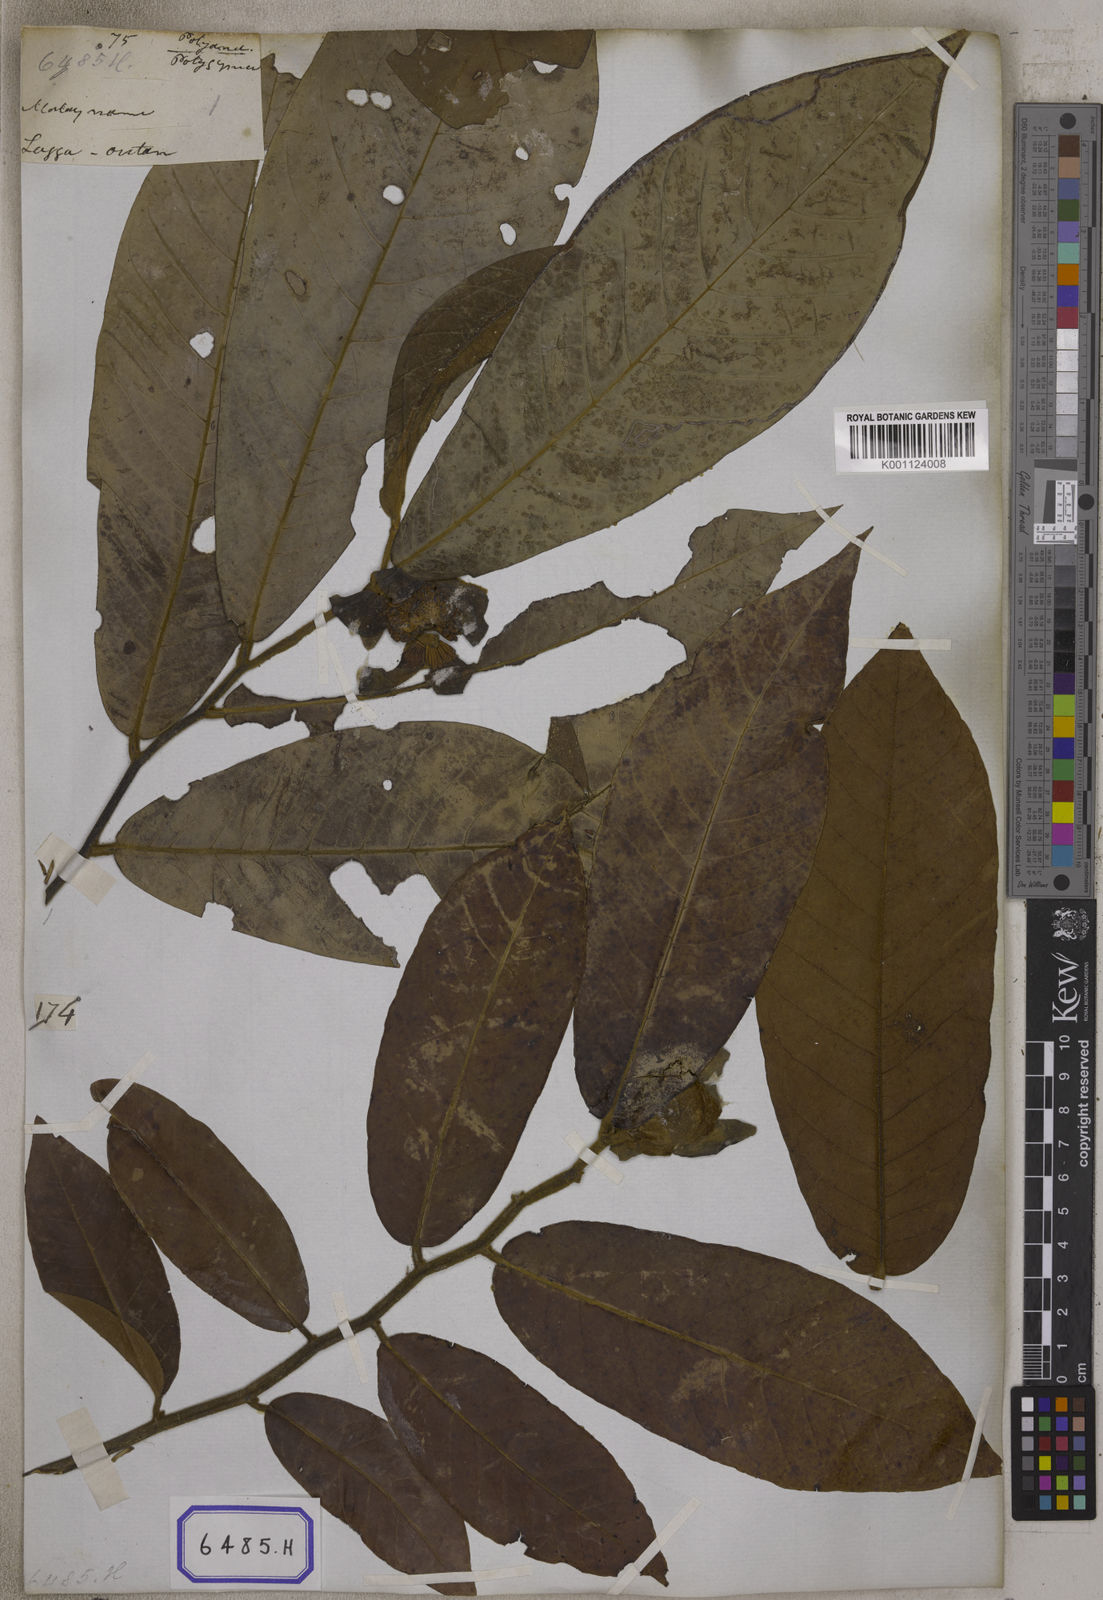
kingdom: Plantae
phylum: Tracheophyta
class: Magnoliopsida
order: Magnoliales
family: Annonaceae
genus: Uvaria
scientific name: Uvaria grandiflora
